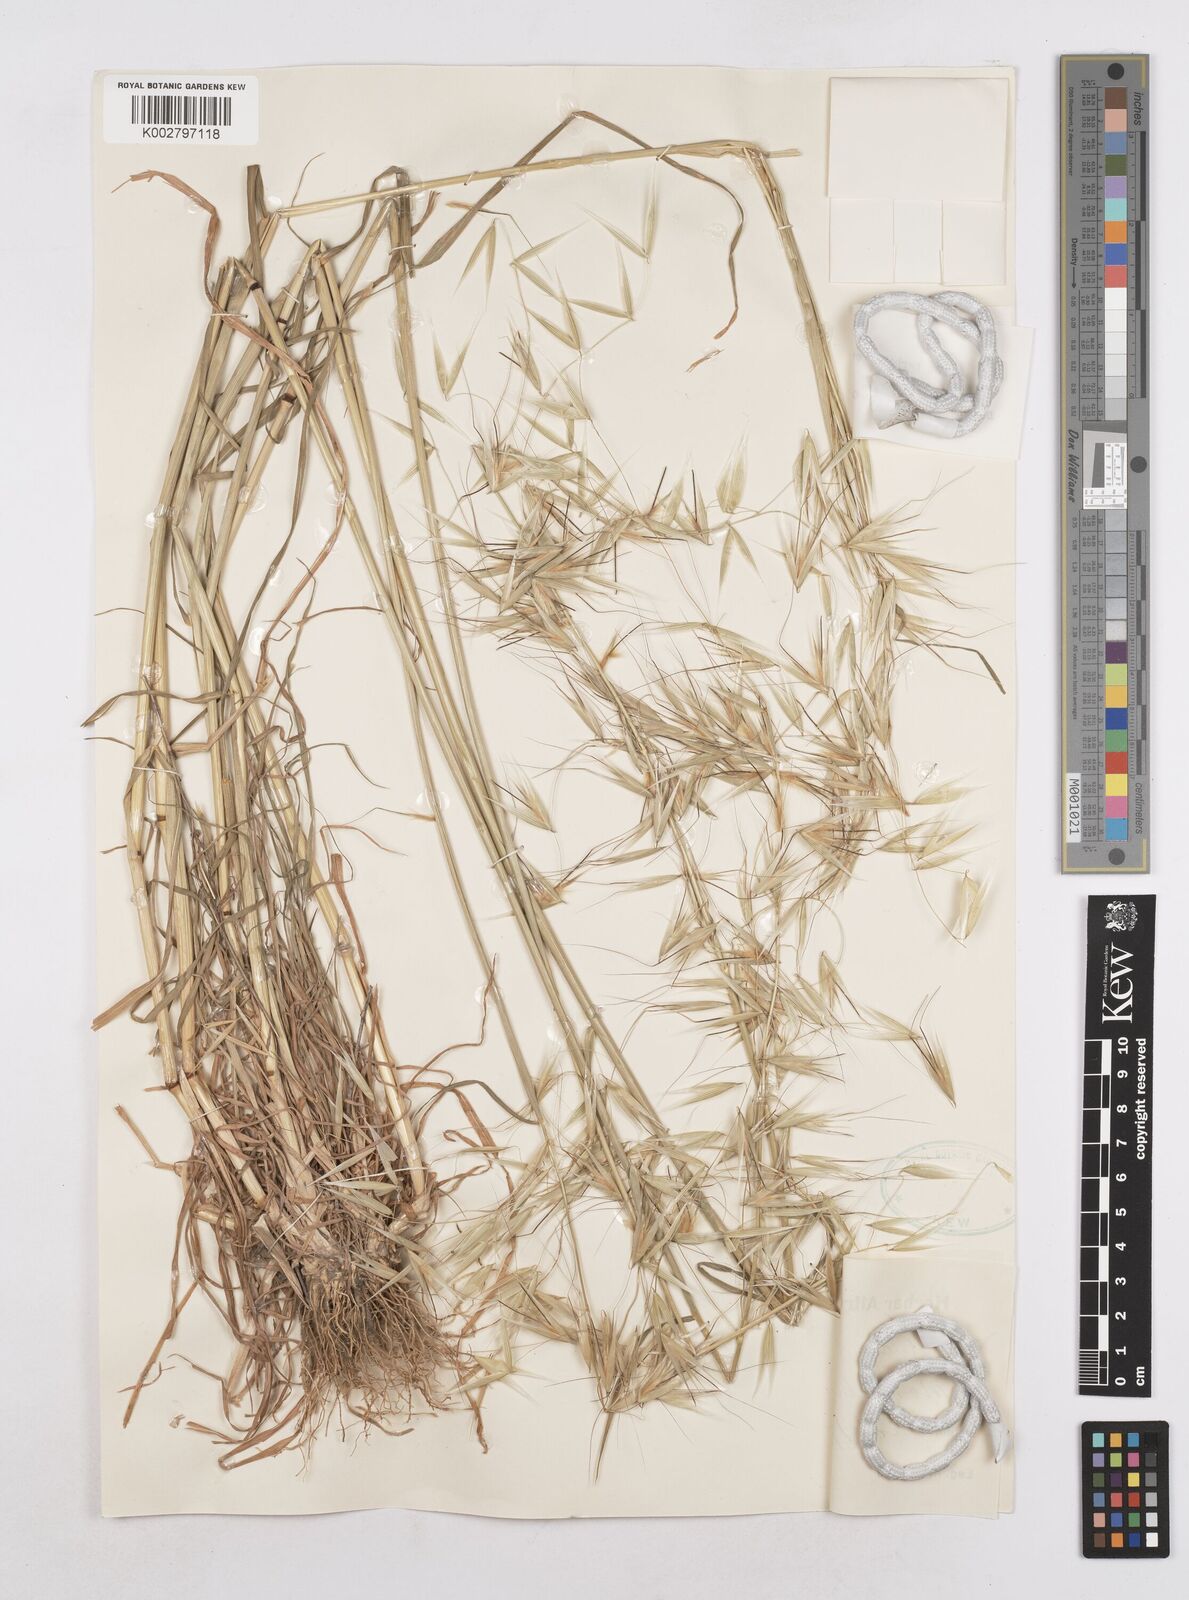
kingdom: Plantae
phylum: Tracheophyta
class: Liliopsida
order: Poales
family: Poaceae
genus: Avena
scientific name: Avena
